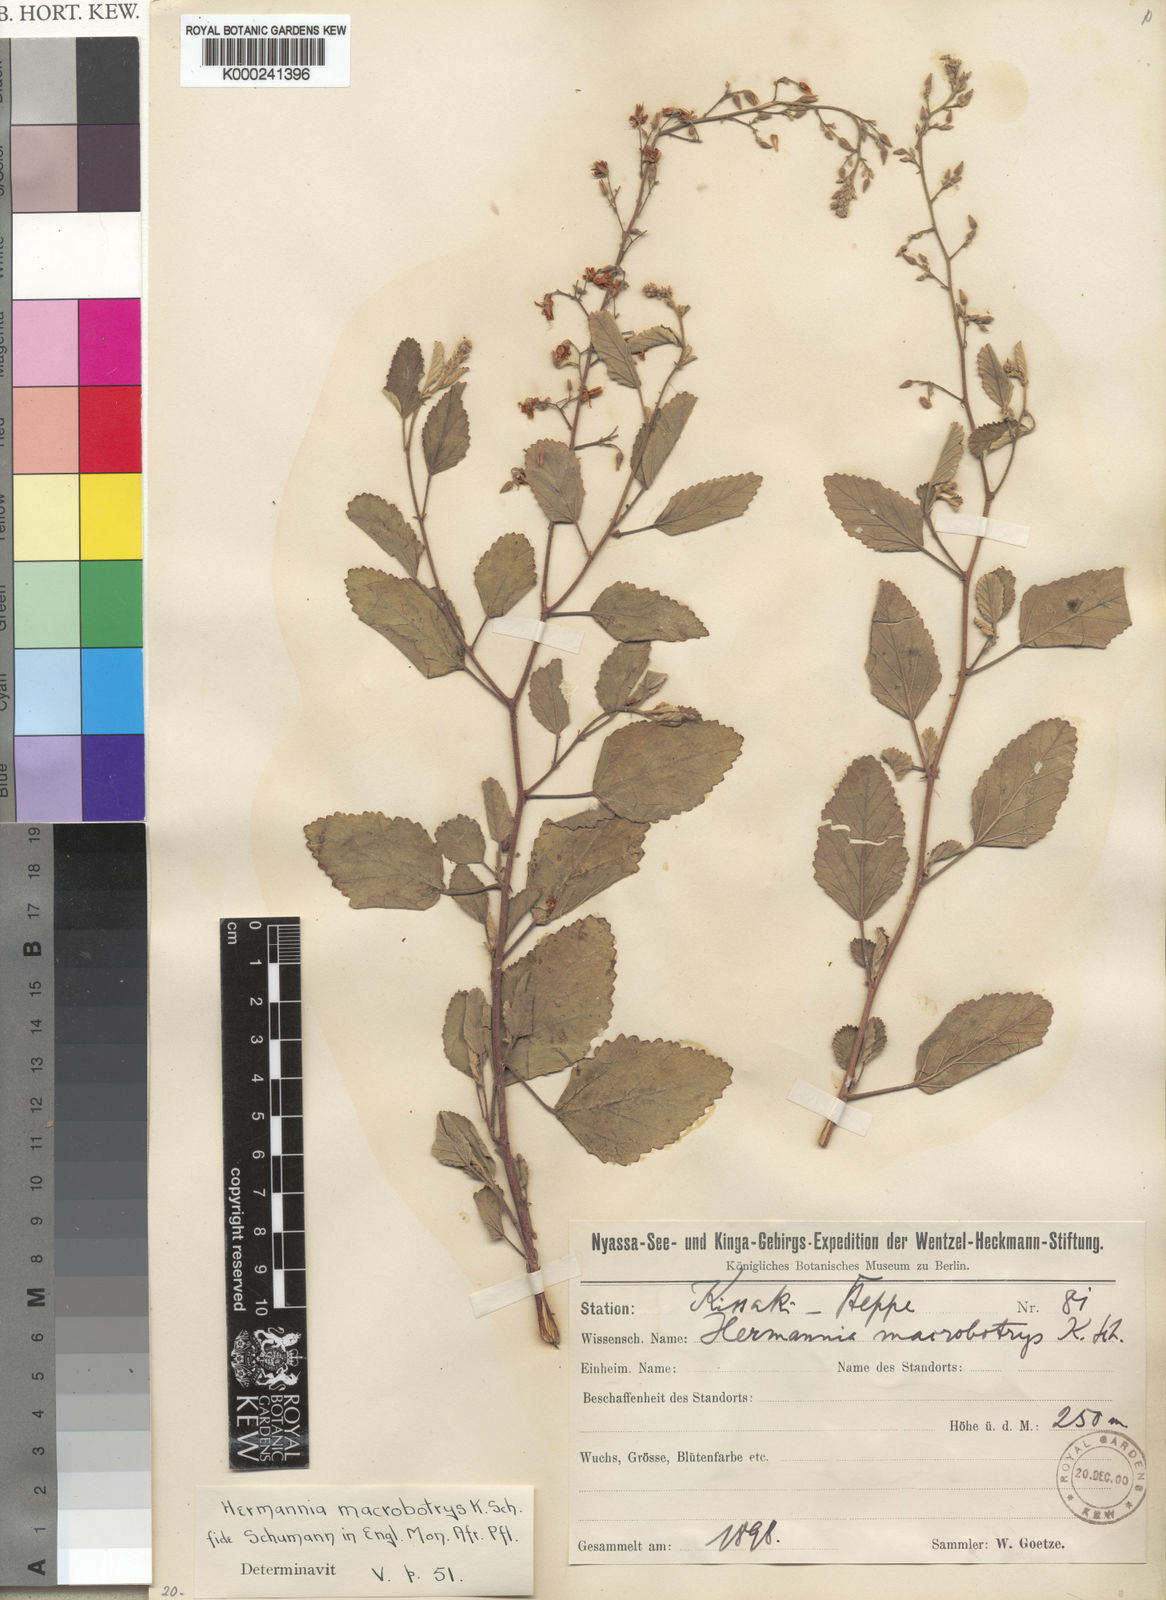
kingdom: Plantae
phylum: Tracheophyta
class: Magnoliopsida
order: Malvales
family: Malvaceae
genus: Hermannia
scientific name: Hermannia macrobotrys
